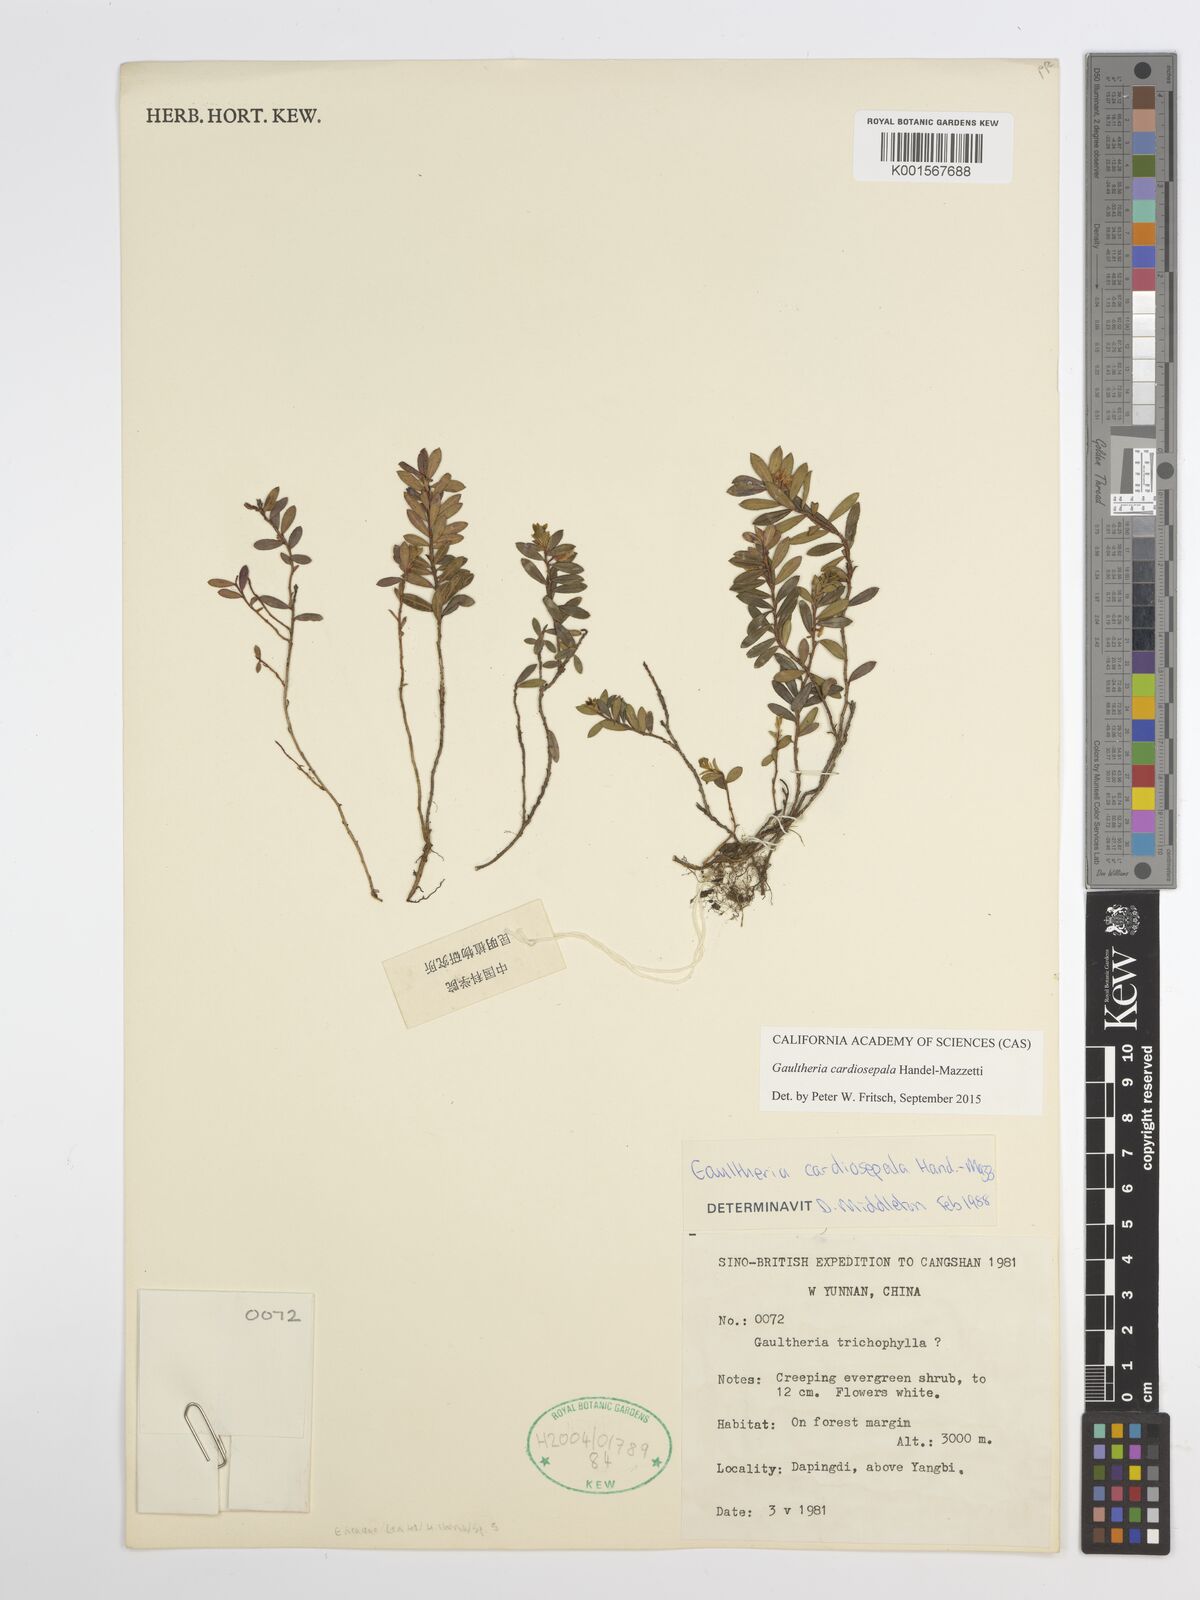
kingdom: Plantae
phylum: Tracheophyta
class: Magnoliopsida
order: Ericales
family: Ericaceae
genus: Gaultheria
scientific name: Gaultheria cardiosepala
